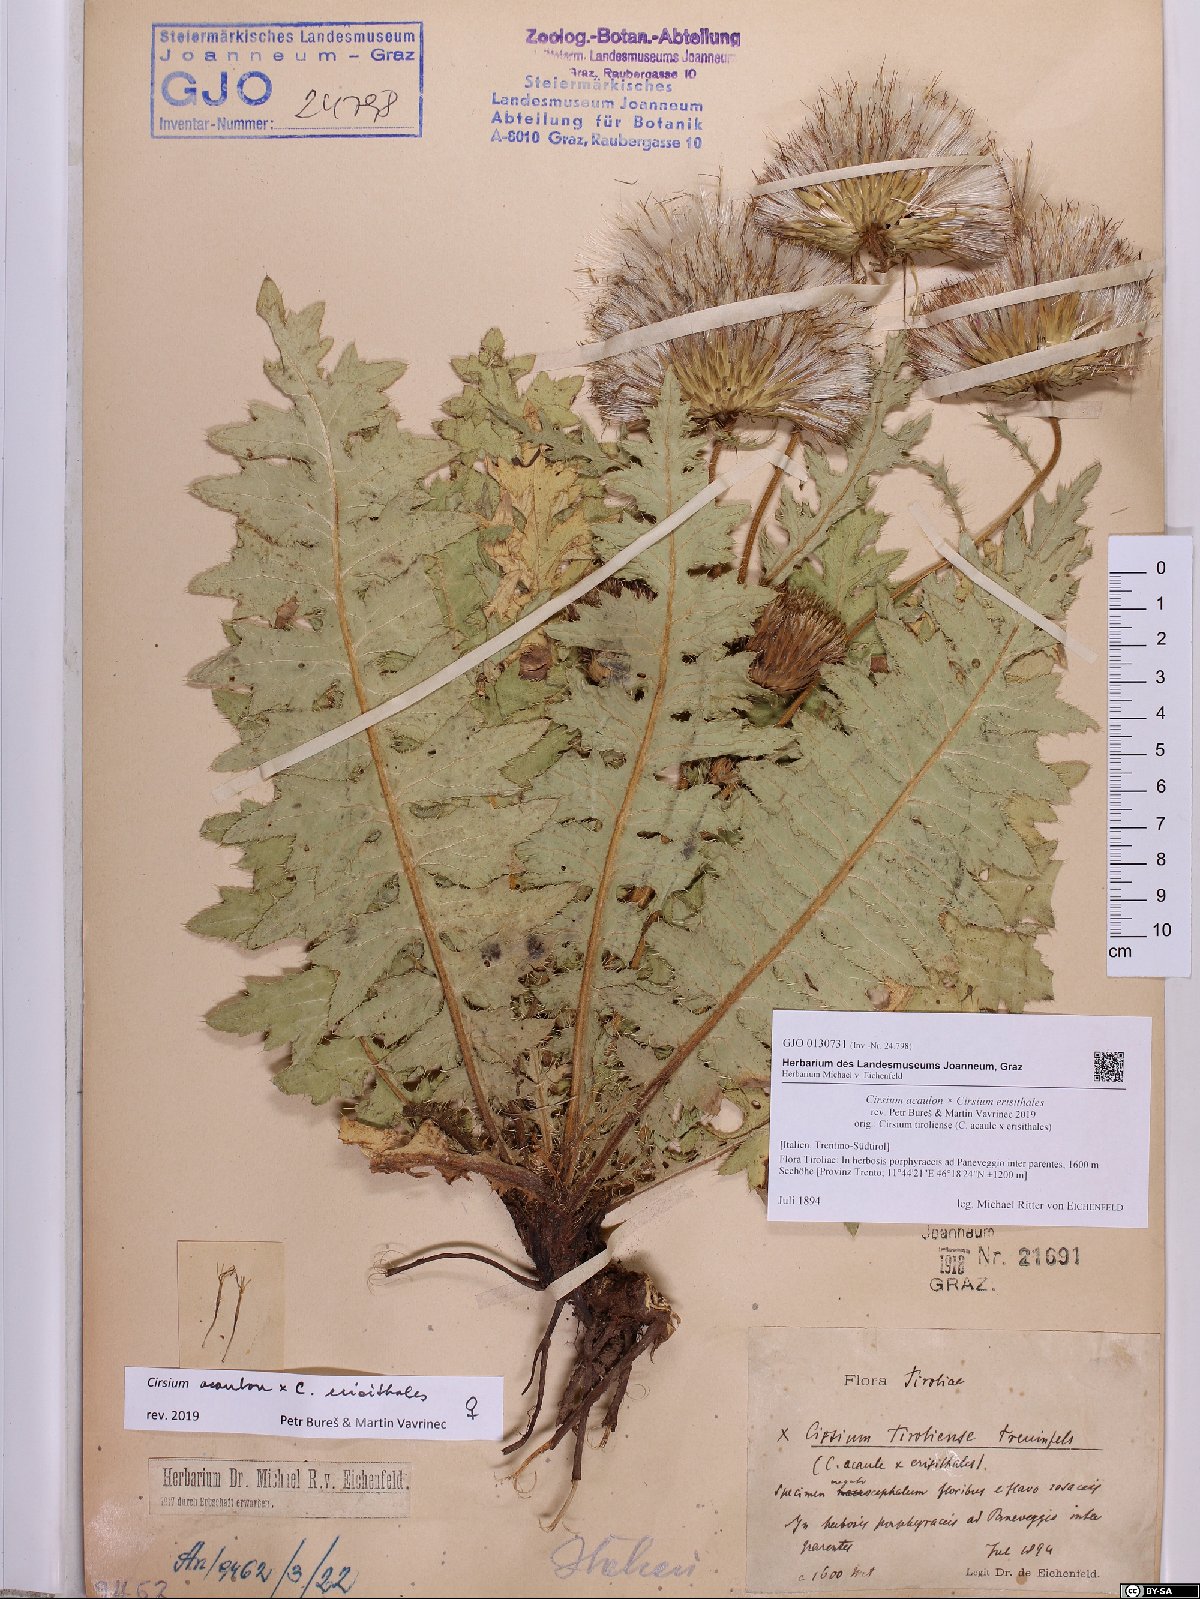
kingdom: Plantae
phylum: Tracheophyta
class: Magnoliopsida
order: Asterales
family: Asteraceae
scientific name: Asteraceae
